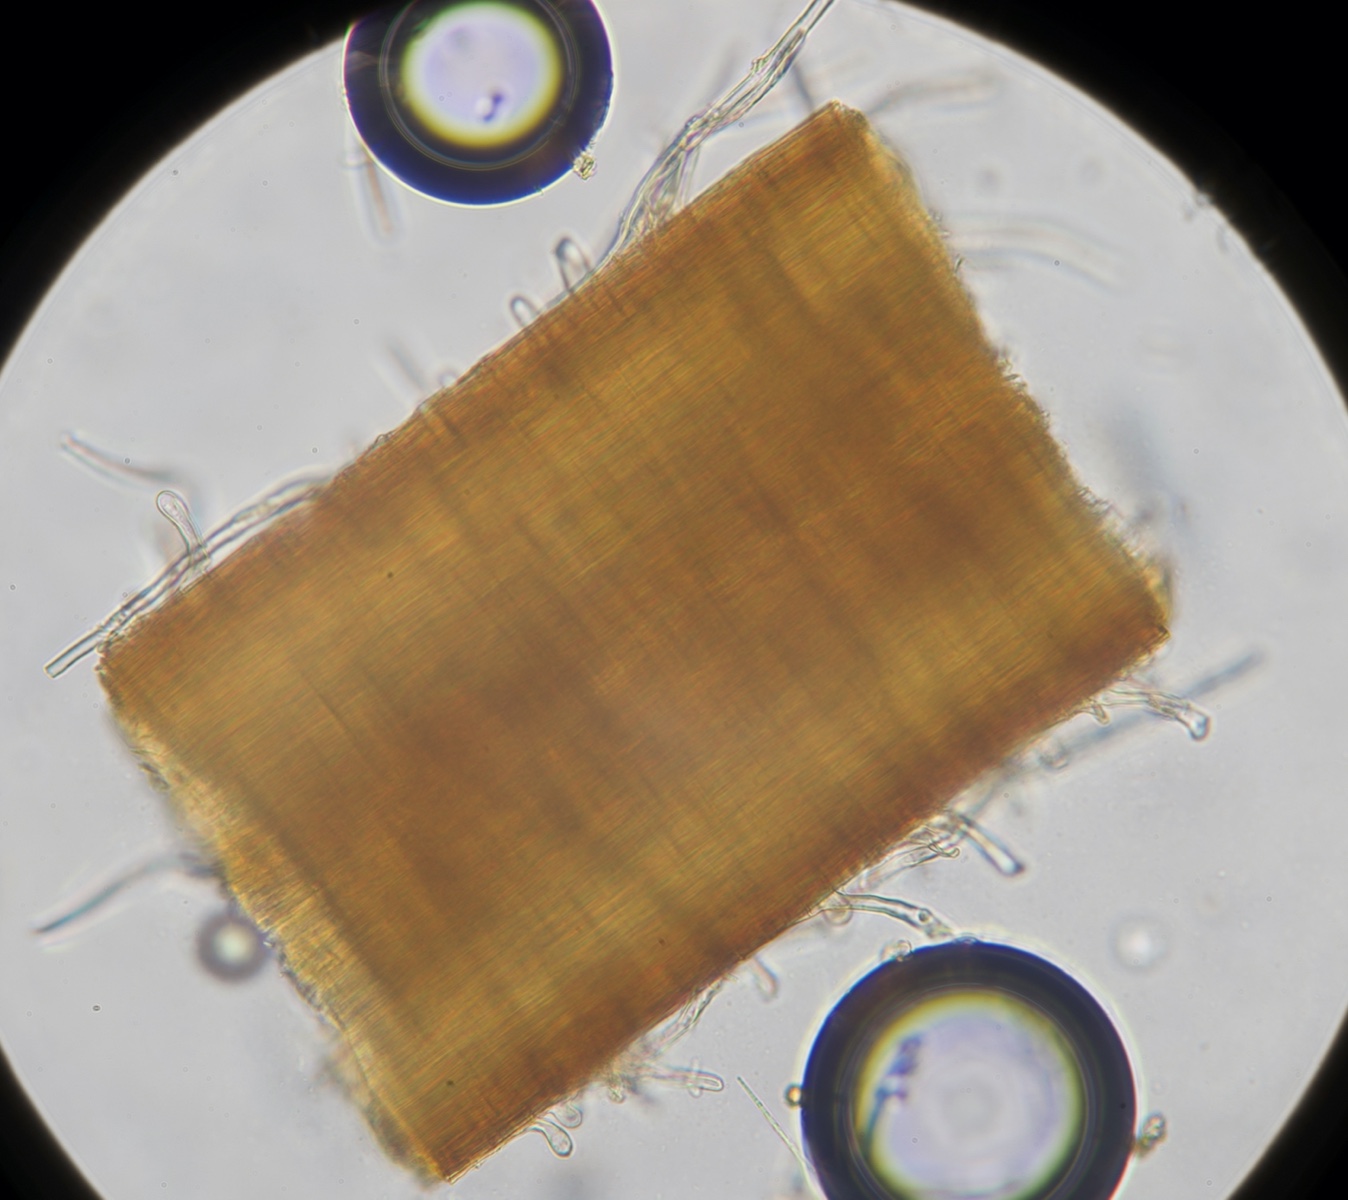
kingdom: Fungi
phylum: Basidiomycota
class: Agaricomycetes
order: Agaricales
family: Physalacriaceae
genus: Rhizomarasmius
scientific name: Rhizomarasmius setosus
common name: bøgeblads-bruskhat
